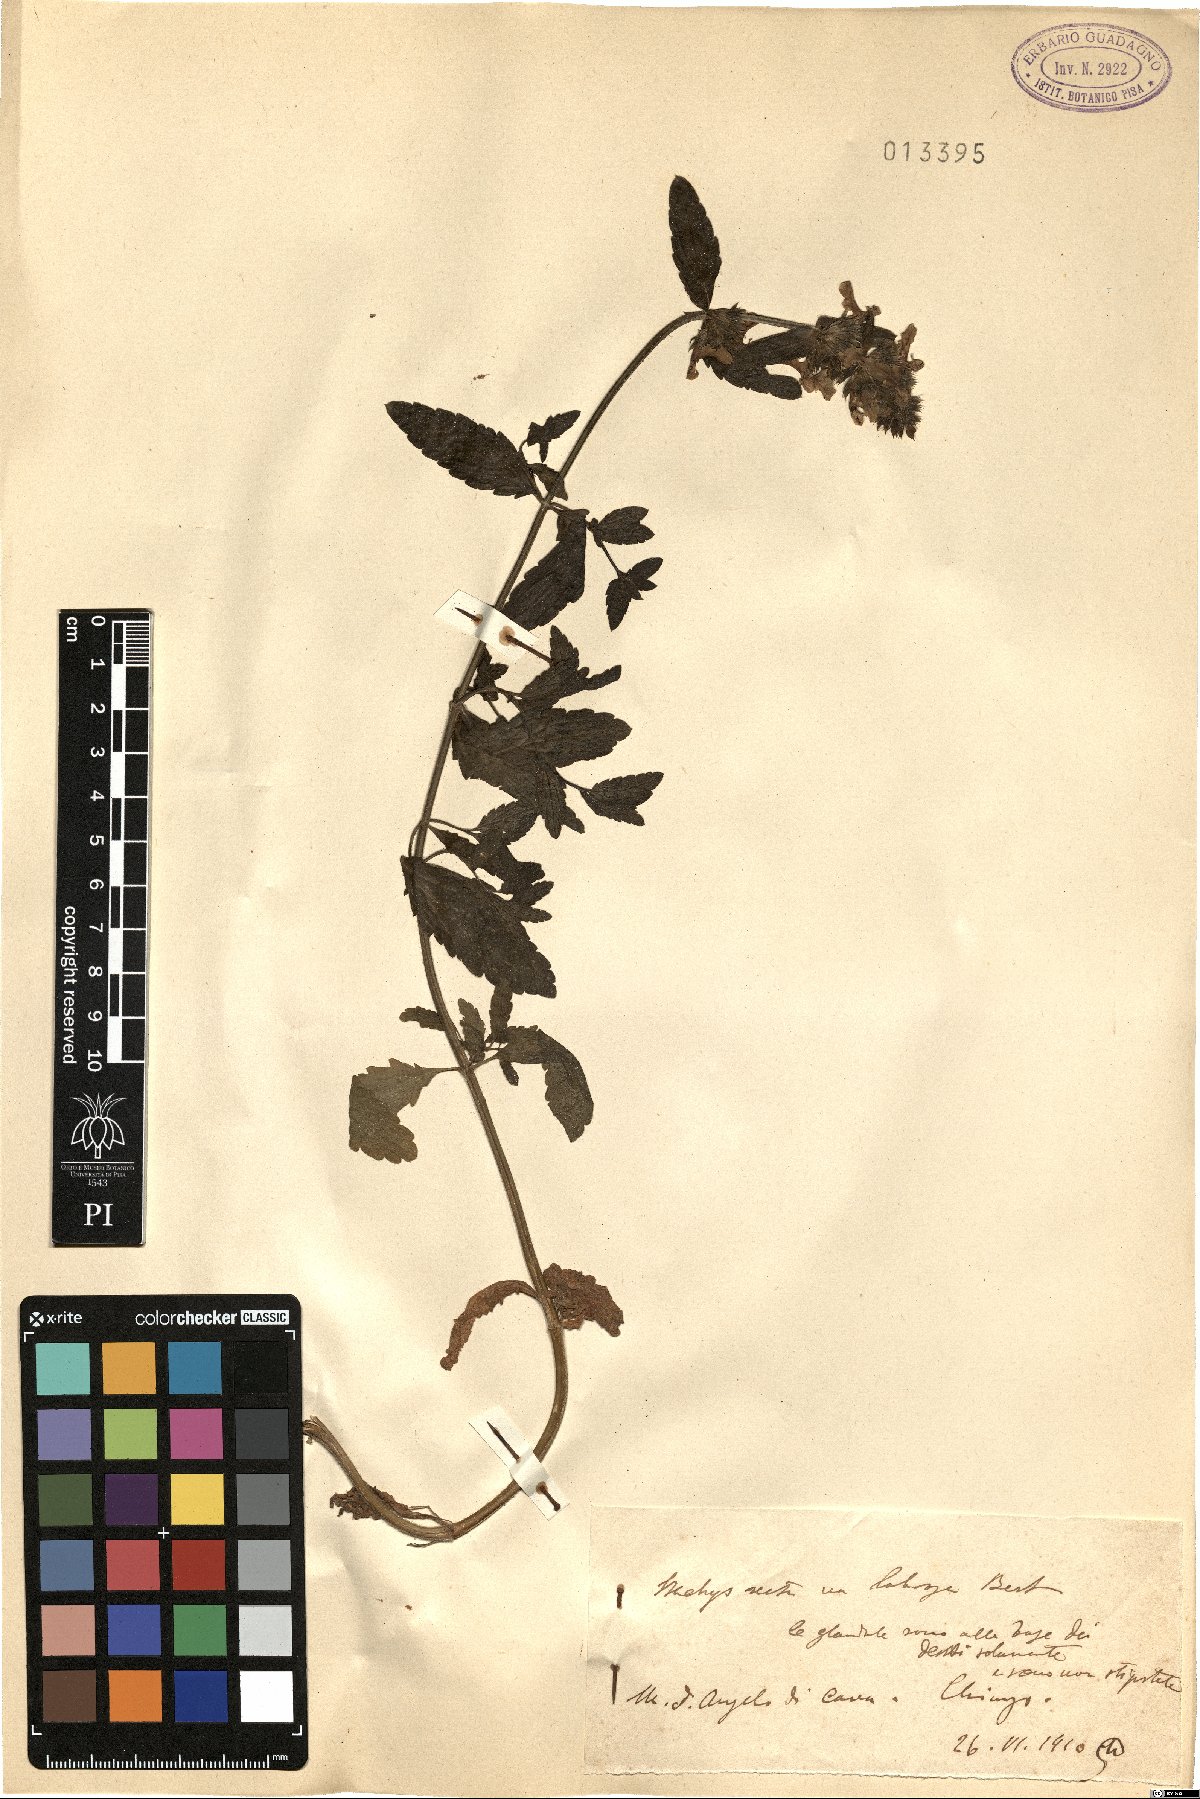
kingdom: Plantae
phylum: Tracheophyta
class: Magnoliopsida
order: Lamiales
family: Lamiaceae
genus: Stachys
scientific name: Stachys recta
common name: Perennial yellow-woundwort
